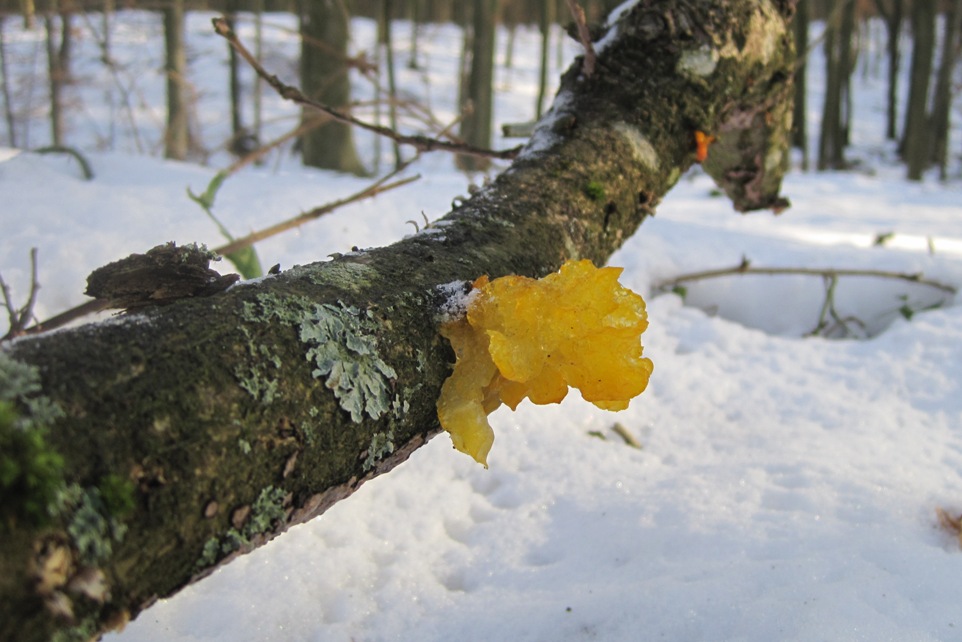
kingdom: Fungi
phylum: Basidiomycota
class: Tremellomycetes
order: Tremellales
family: Tremellaceae
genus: Tremella
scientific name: Tremella mesenterica
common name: gul bævresvamp
